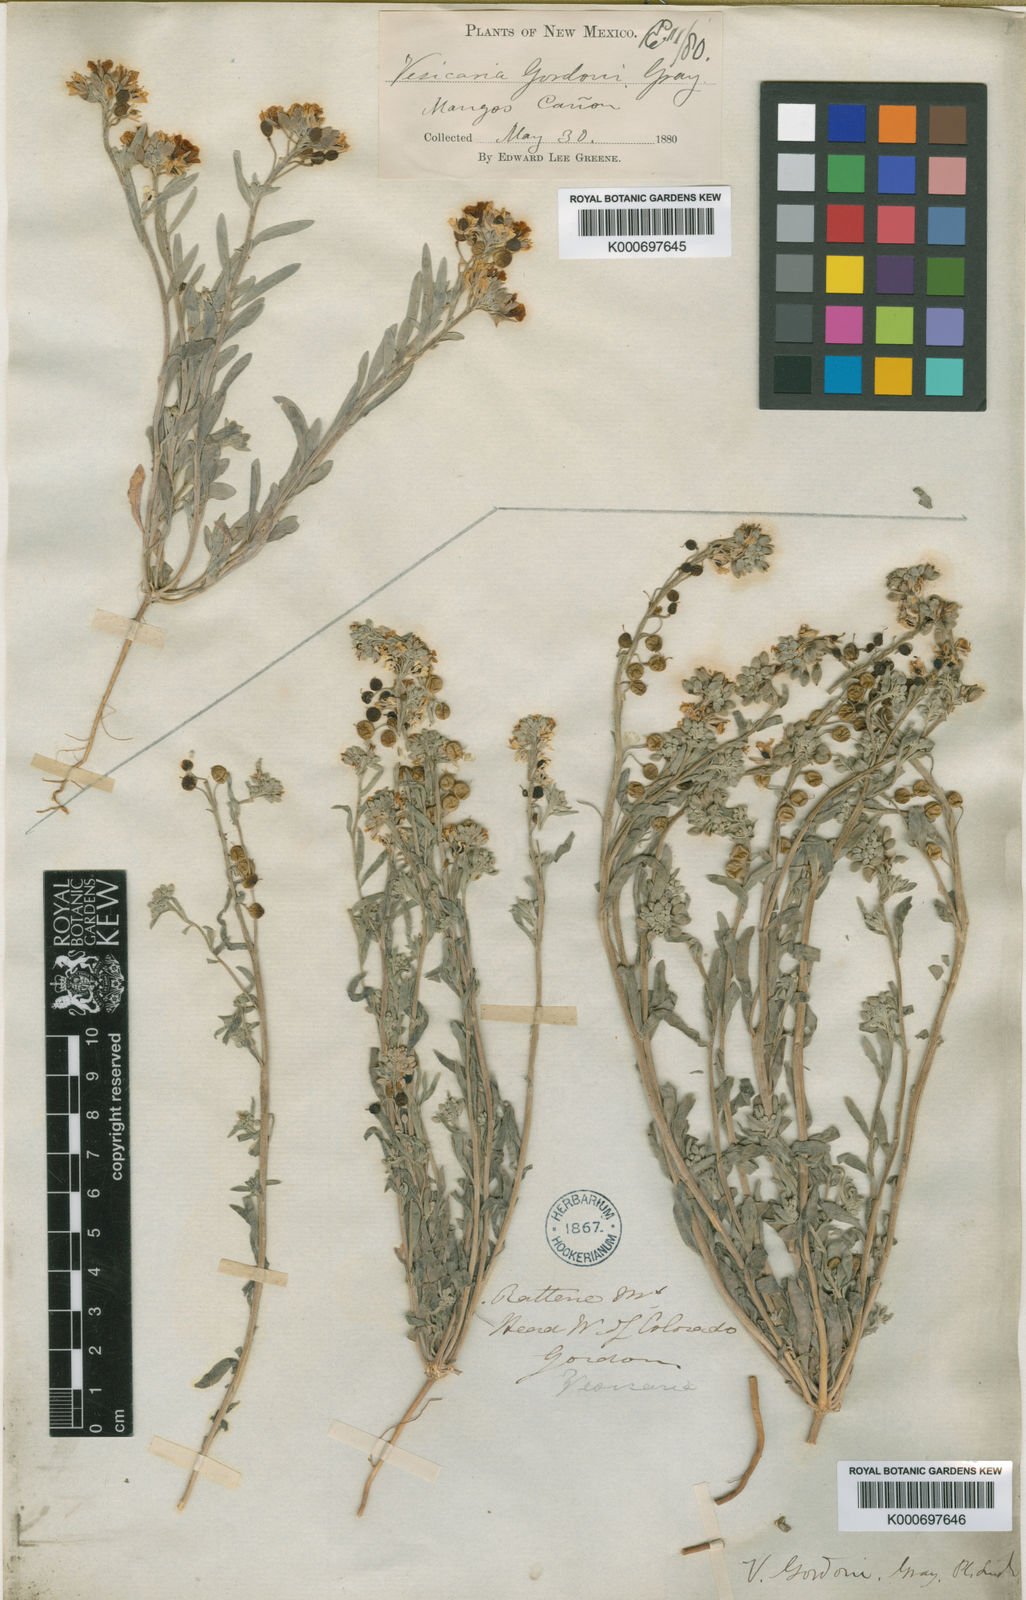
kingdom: Plantae
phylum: Tracheophyta
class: Magnoliopsida
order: Brassicales
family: Brassicaceae
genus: Physaria
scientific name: Physaria gordonii
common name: Gordon's bladderpod
